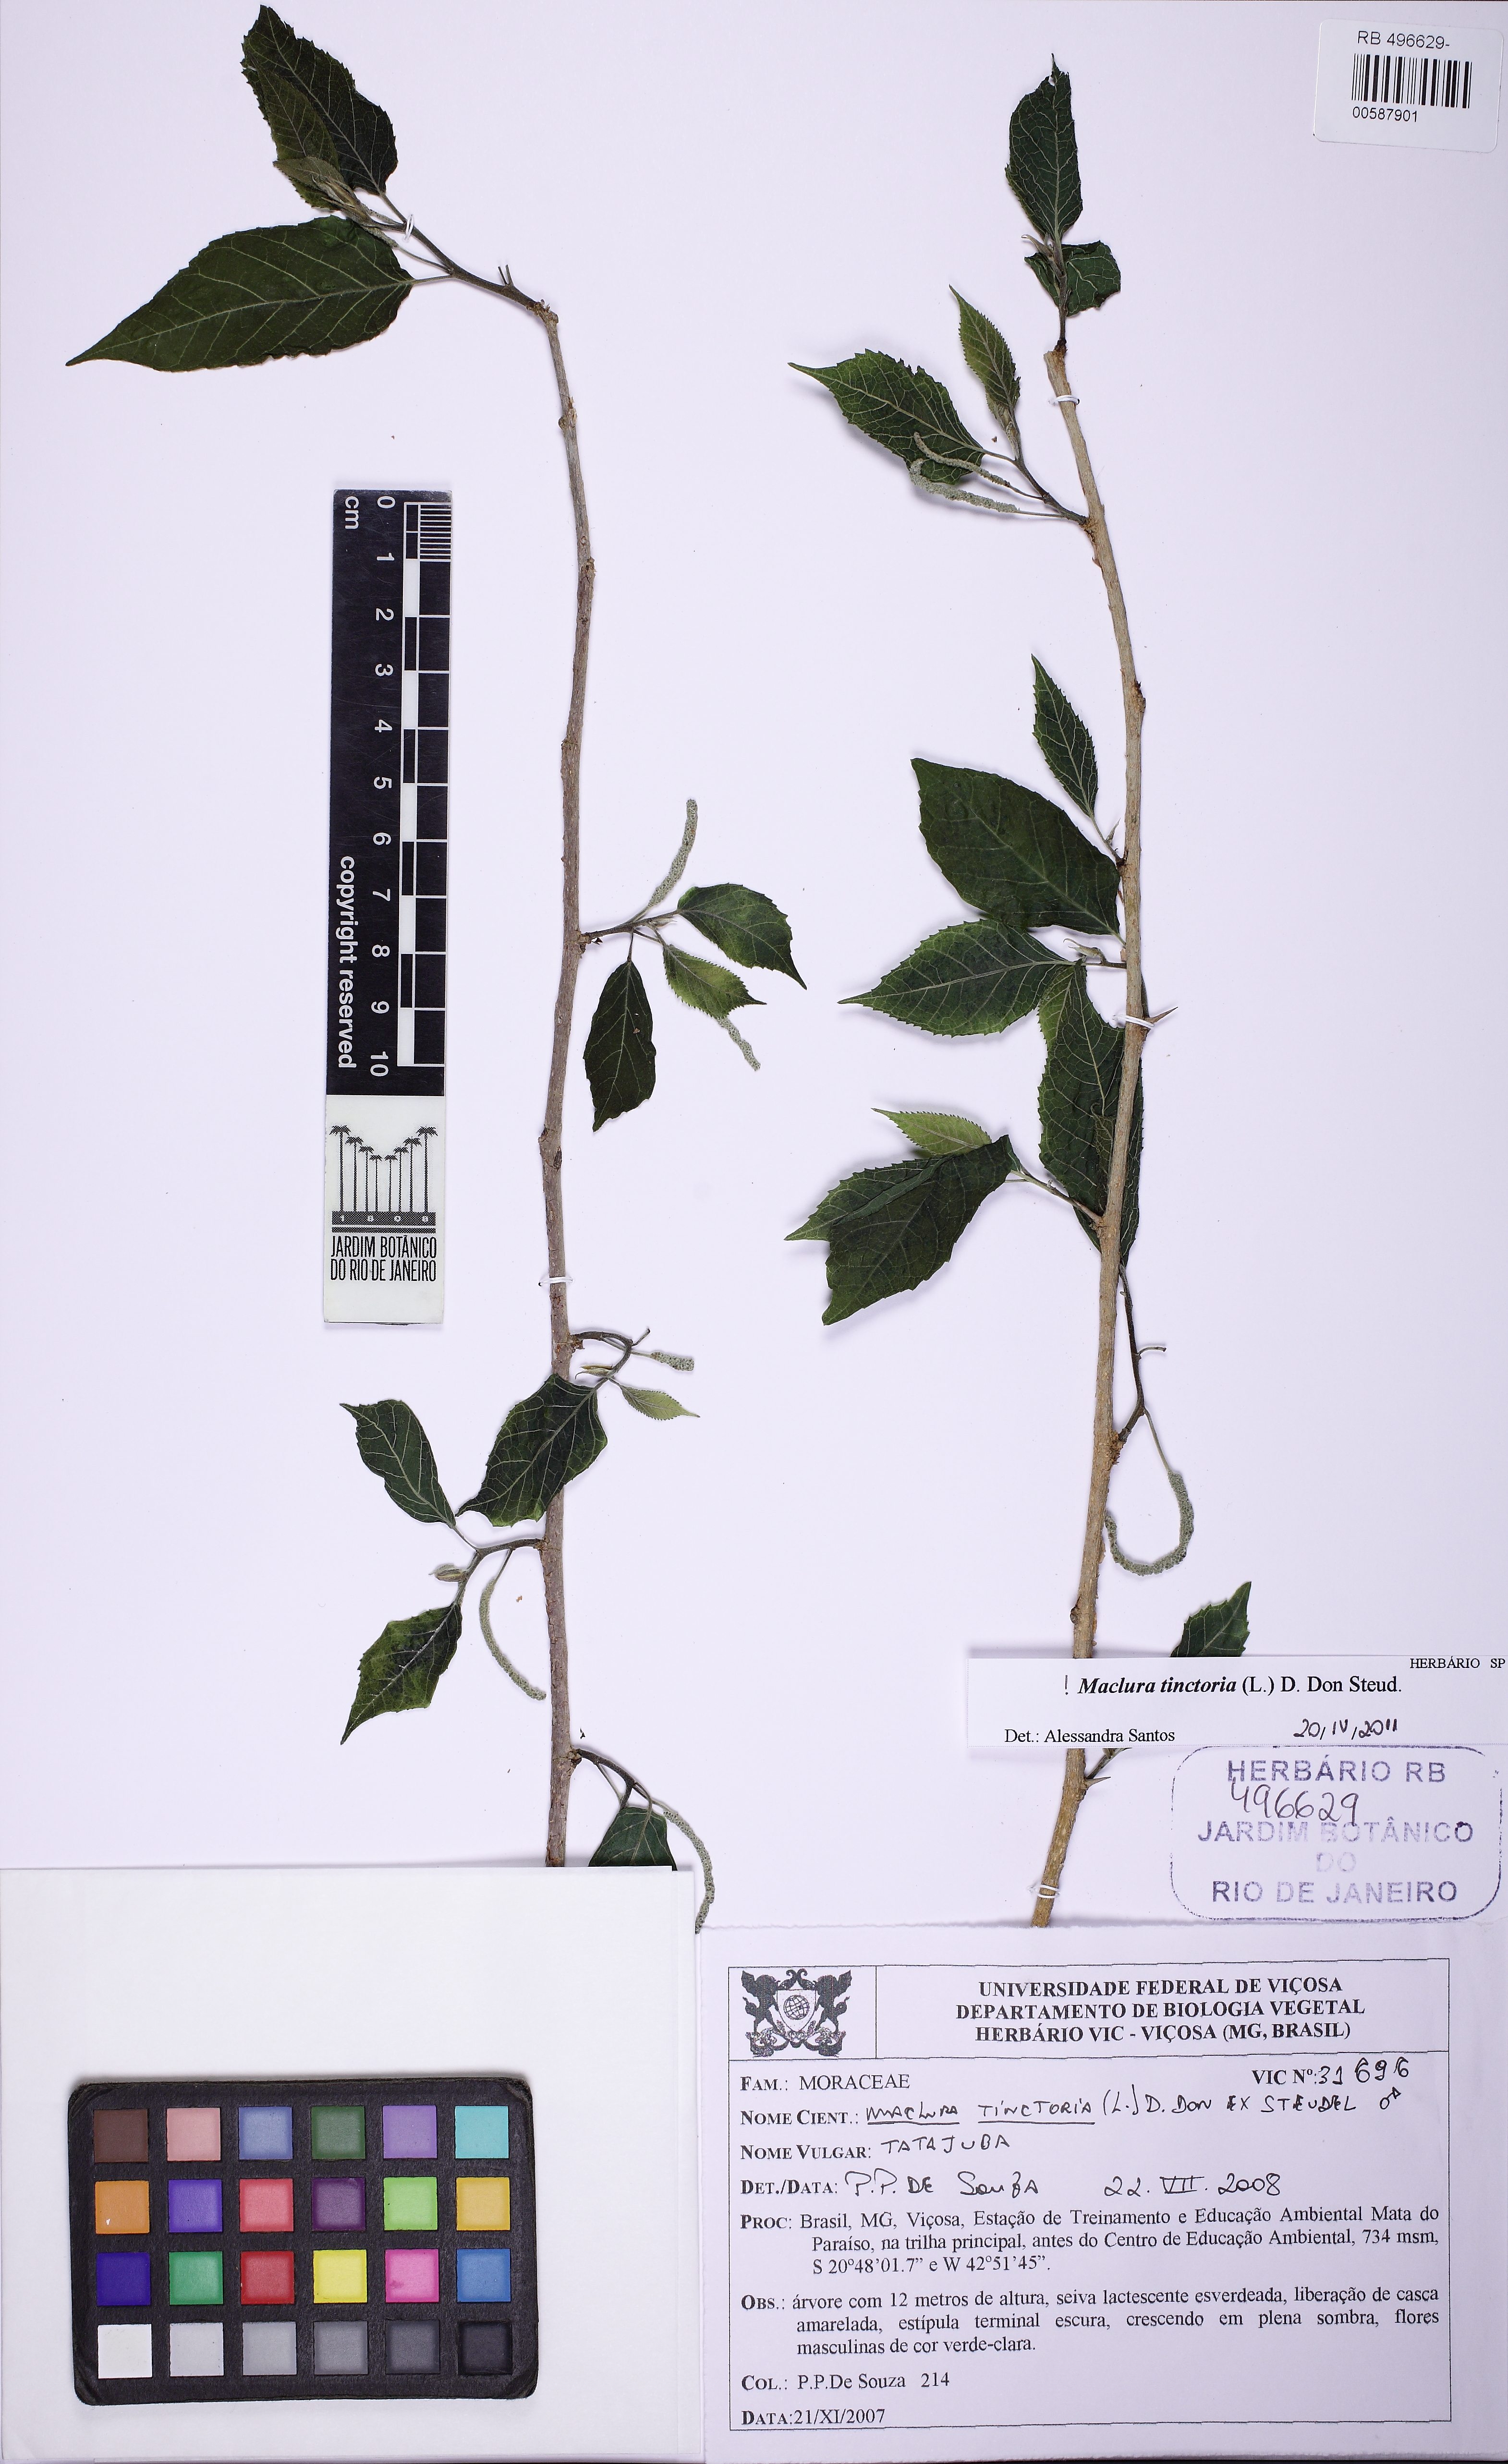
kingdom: Plantae
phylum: Tracheophyta
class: Magnoliopsida
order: Rosales
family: Moraceae
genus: Maclura
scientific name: Maclura tinctoria
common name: Old fustic
